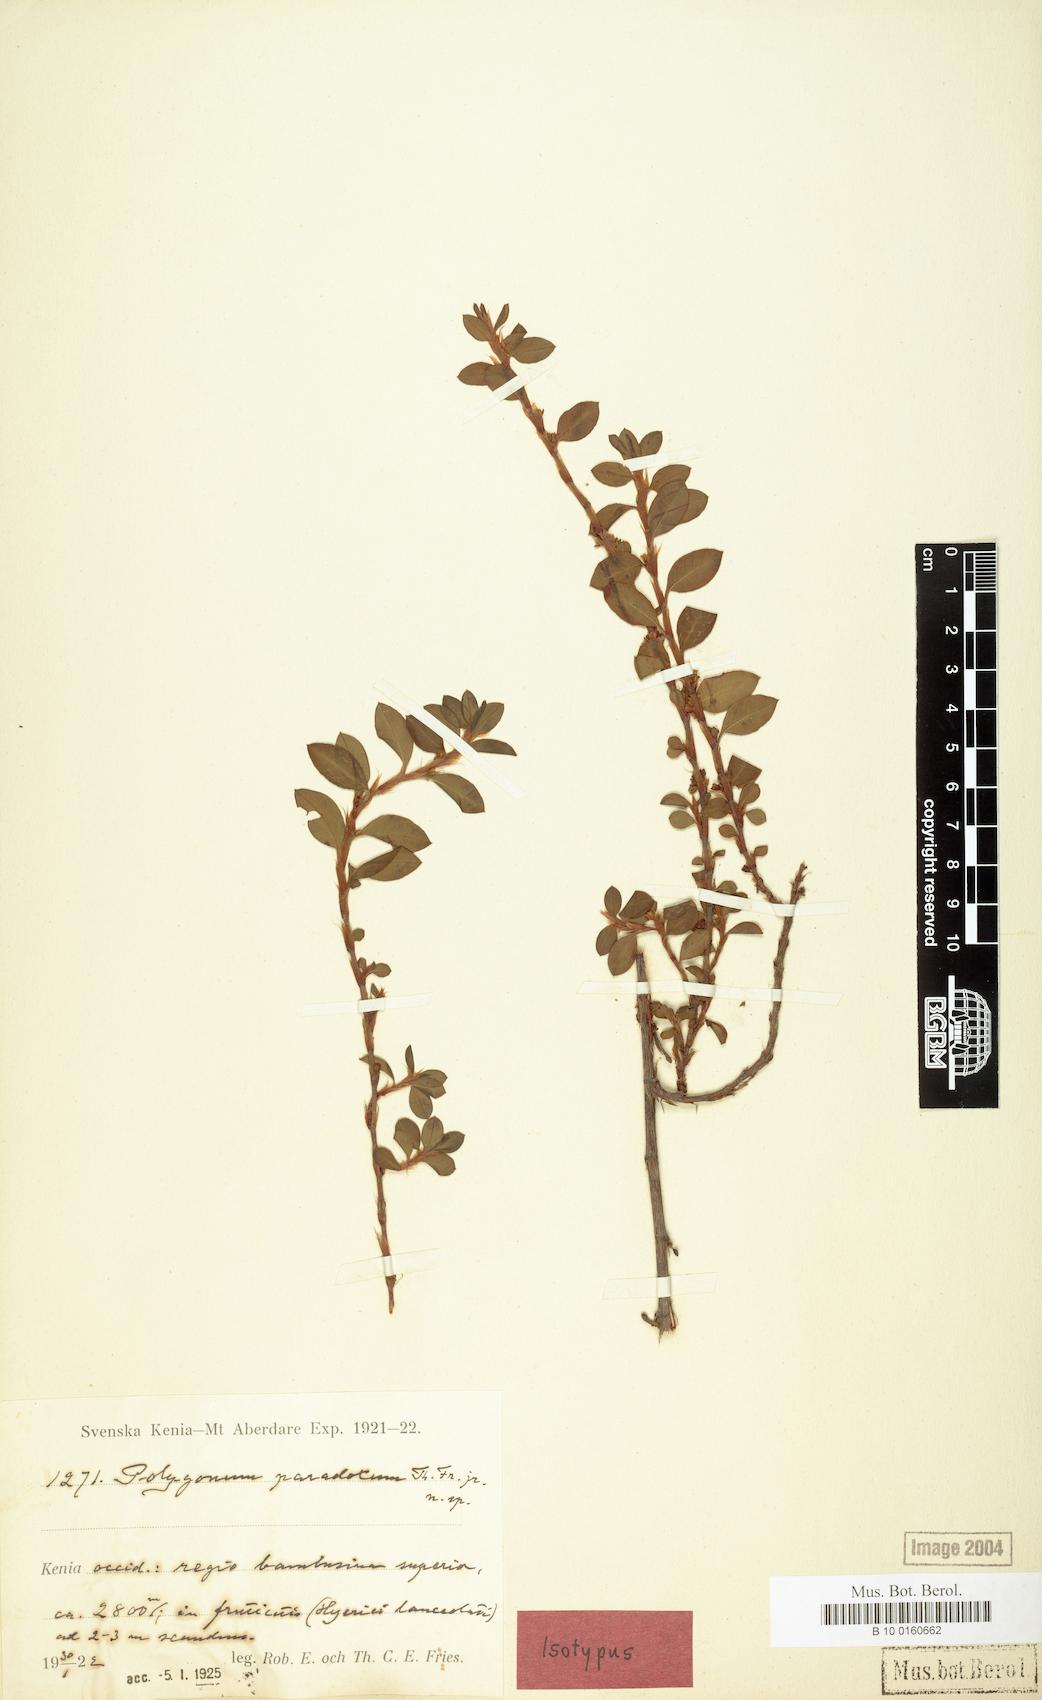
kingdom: Plantae
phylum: Tracheophyta
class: Magnoliopsida
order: Caryophyllales
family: Polygonaceae
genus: Polygonum
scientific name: Polygonum afromontanum
